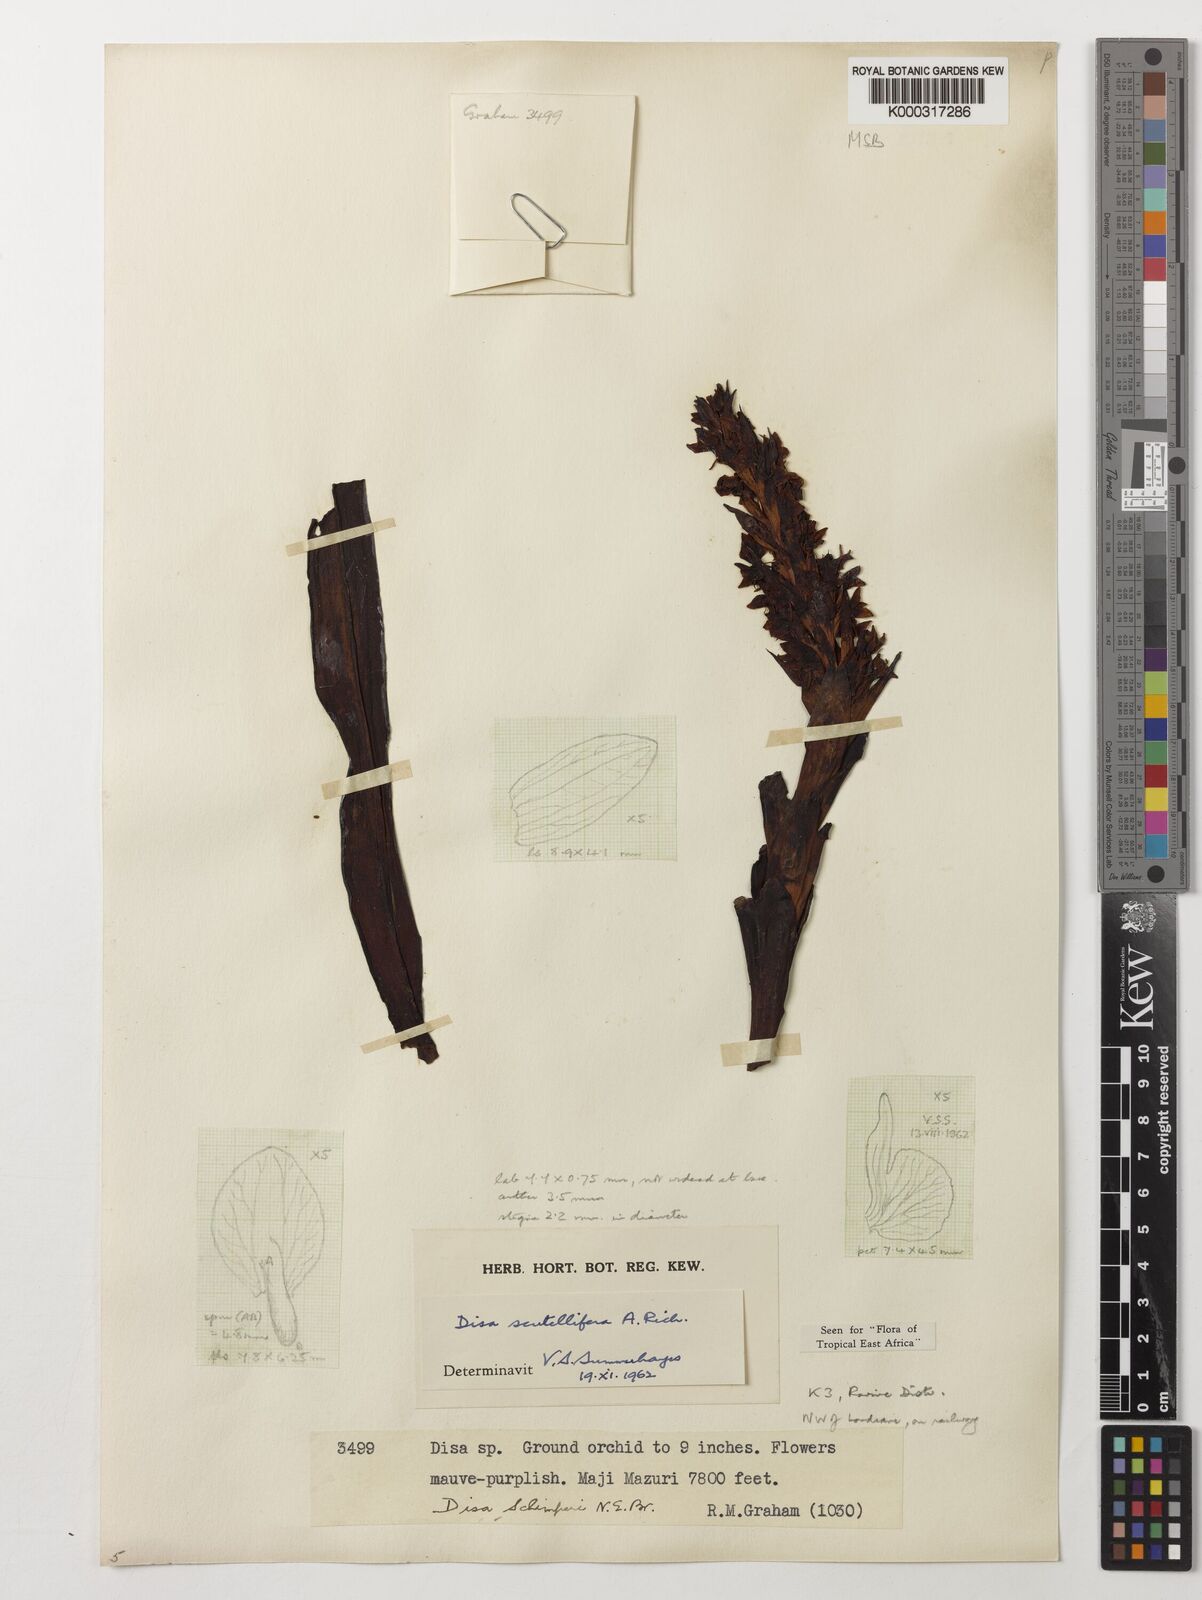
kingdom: Plantae
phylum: Tracheophyta
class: Liliopsida
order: Asparagales
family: Orchidaceae
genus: Disa
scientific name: Disa scutellifera
